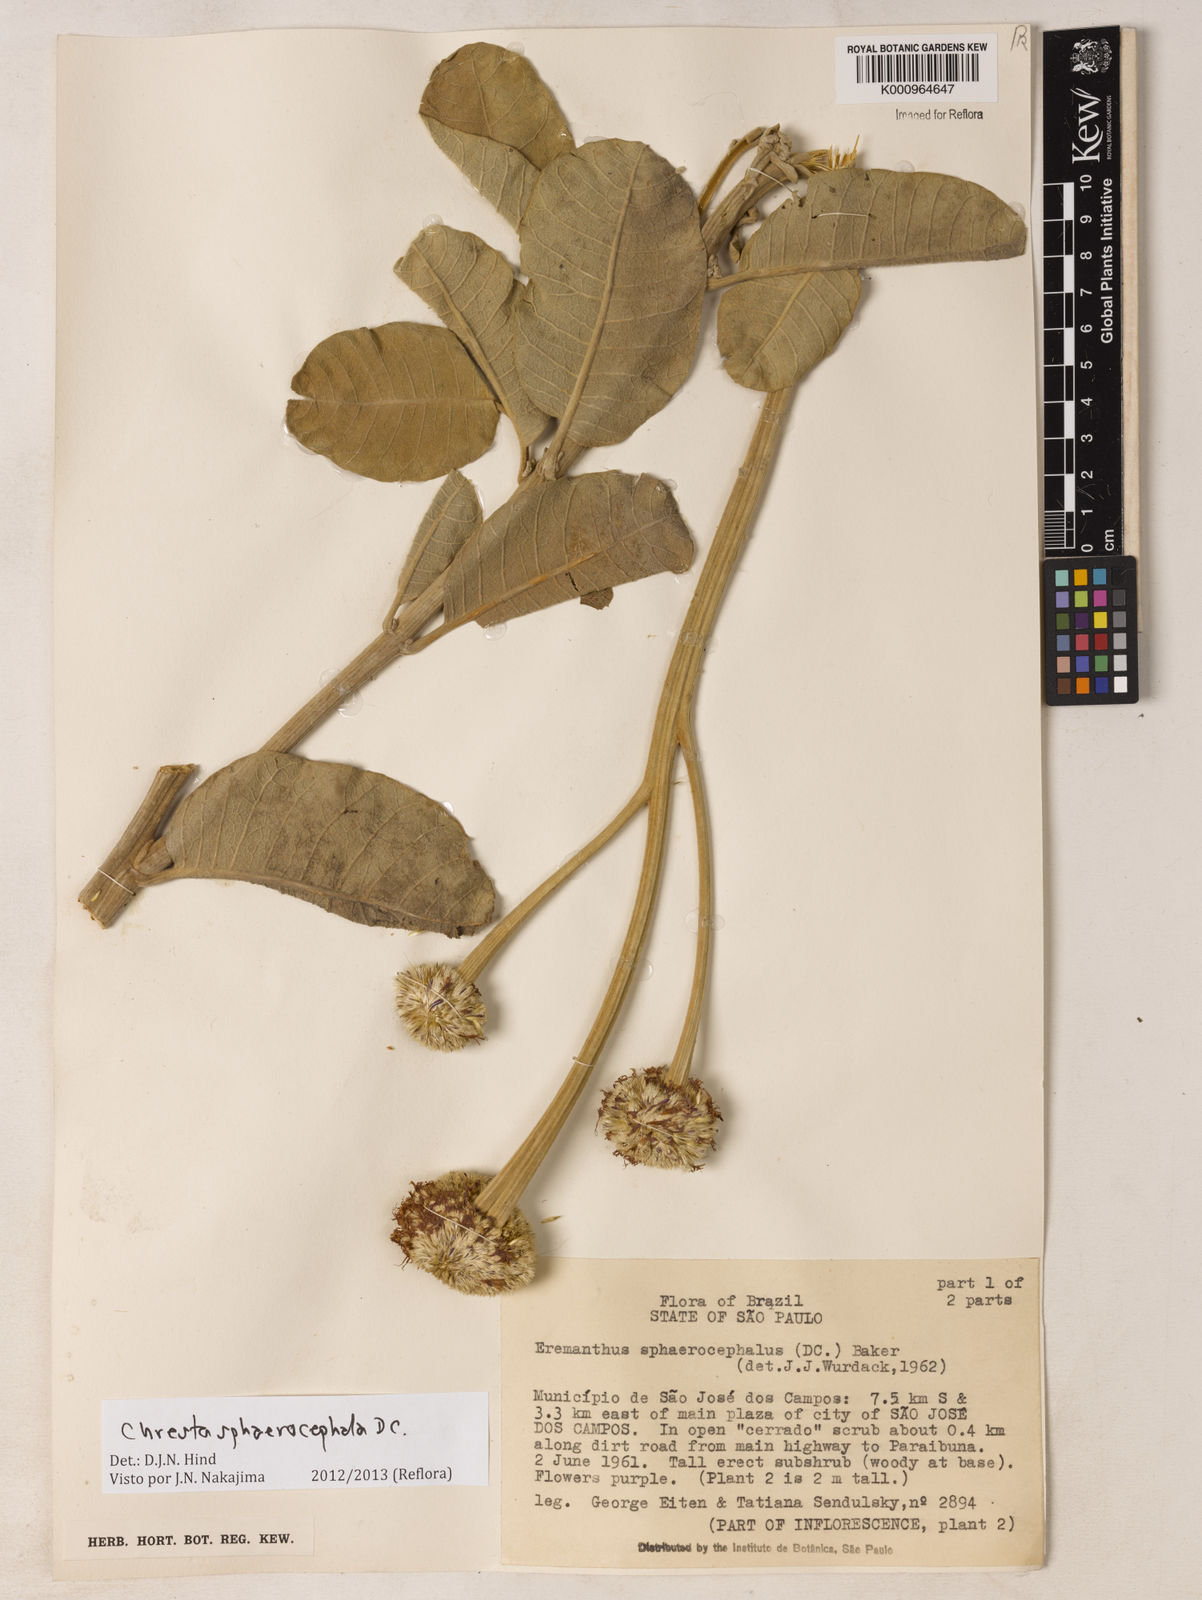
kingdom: Plantae
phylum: Tracheophyta
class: Magnoliopsida
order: Asterales
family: Asteraceae
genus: Chresta
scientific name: Chresta sphaerocephala
